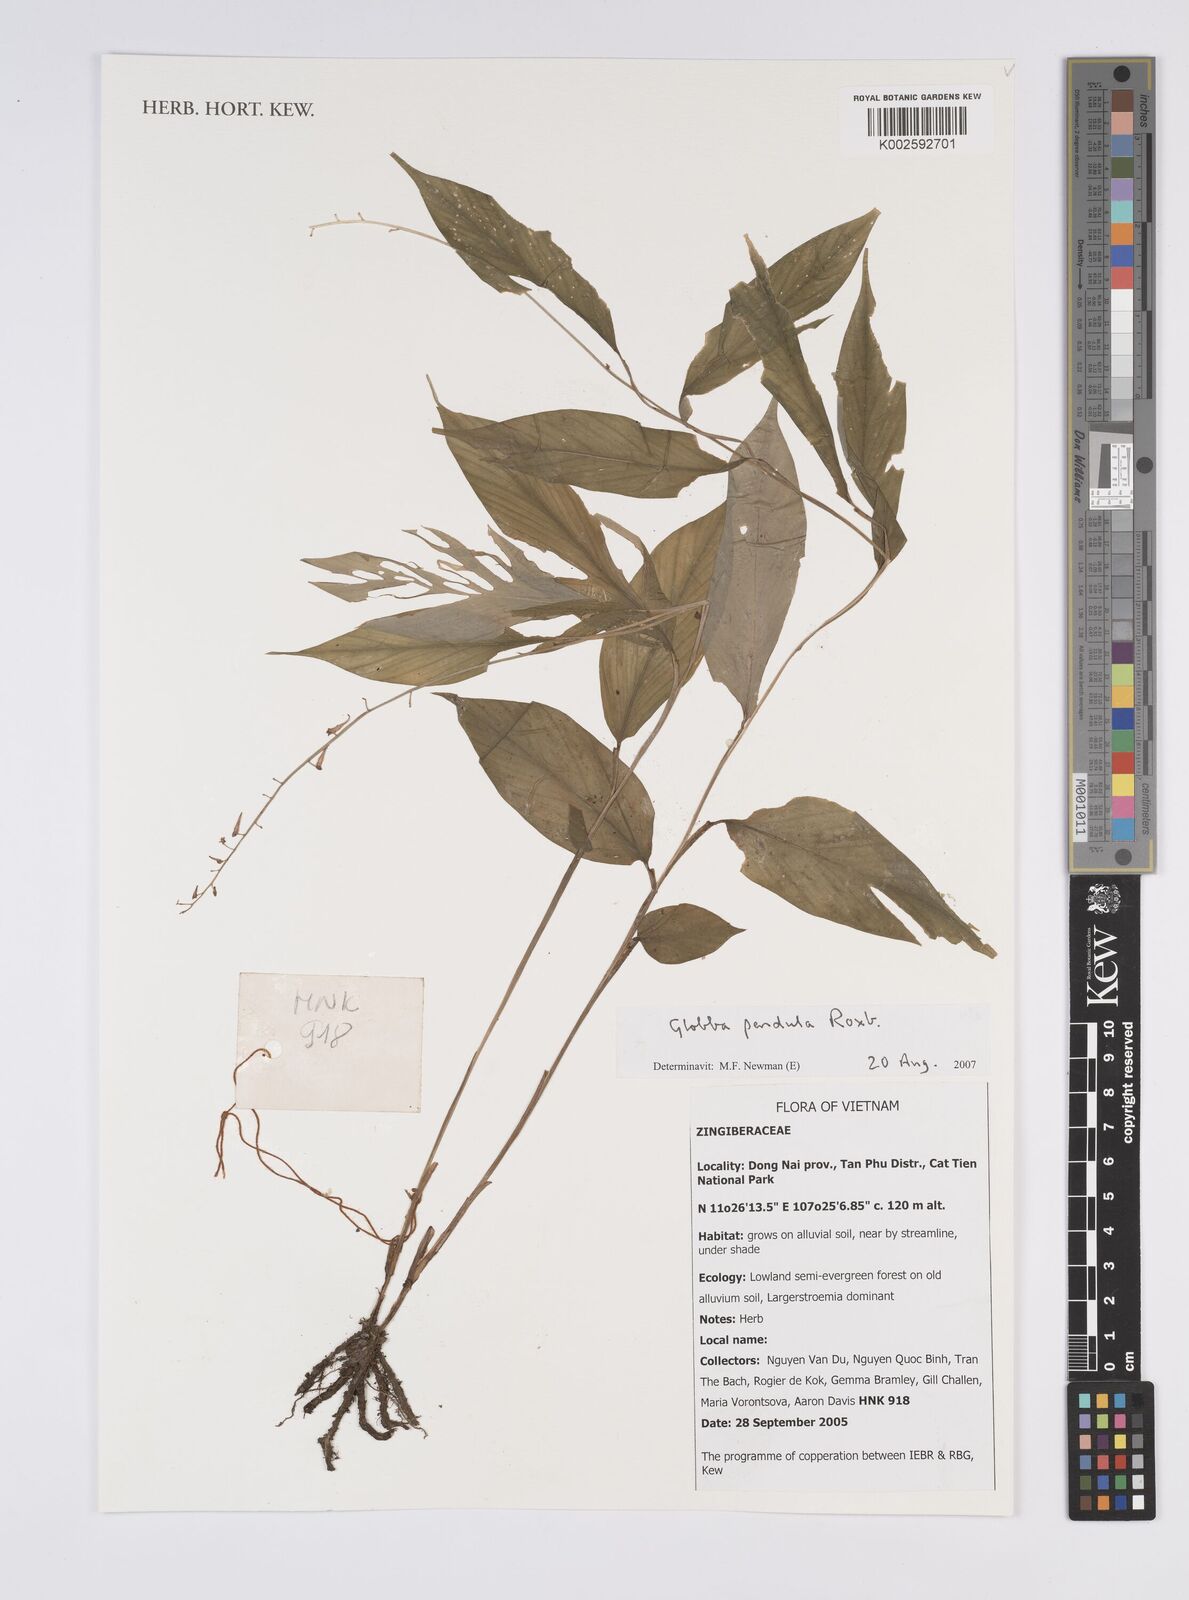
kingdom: Plantae
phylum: Tracheophyta
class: Liliopsida
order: Zingiberales
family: Zingiberaceae
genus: Globba
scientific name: Globba pendula
